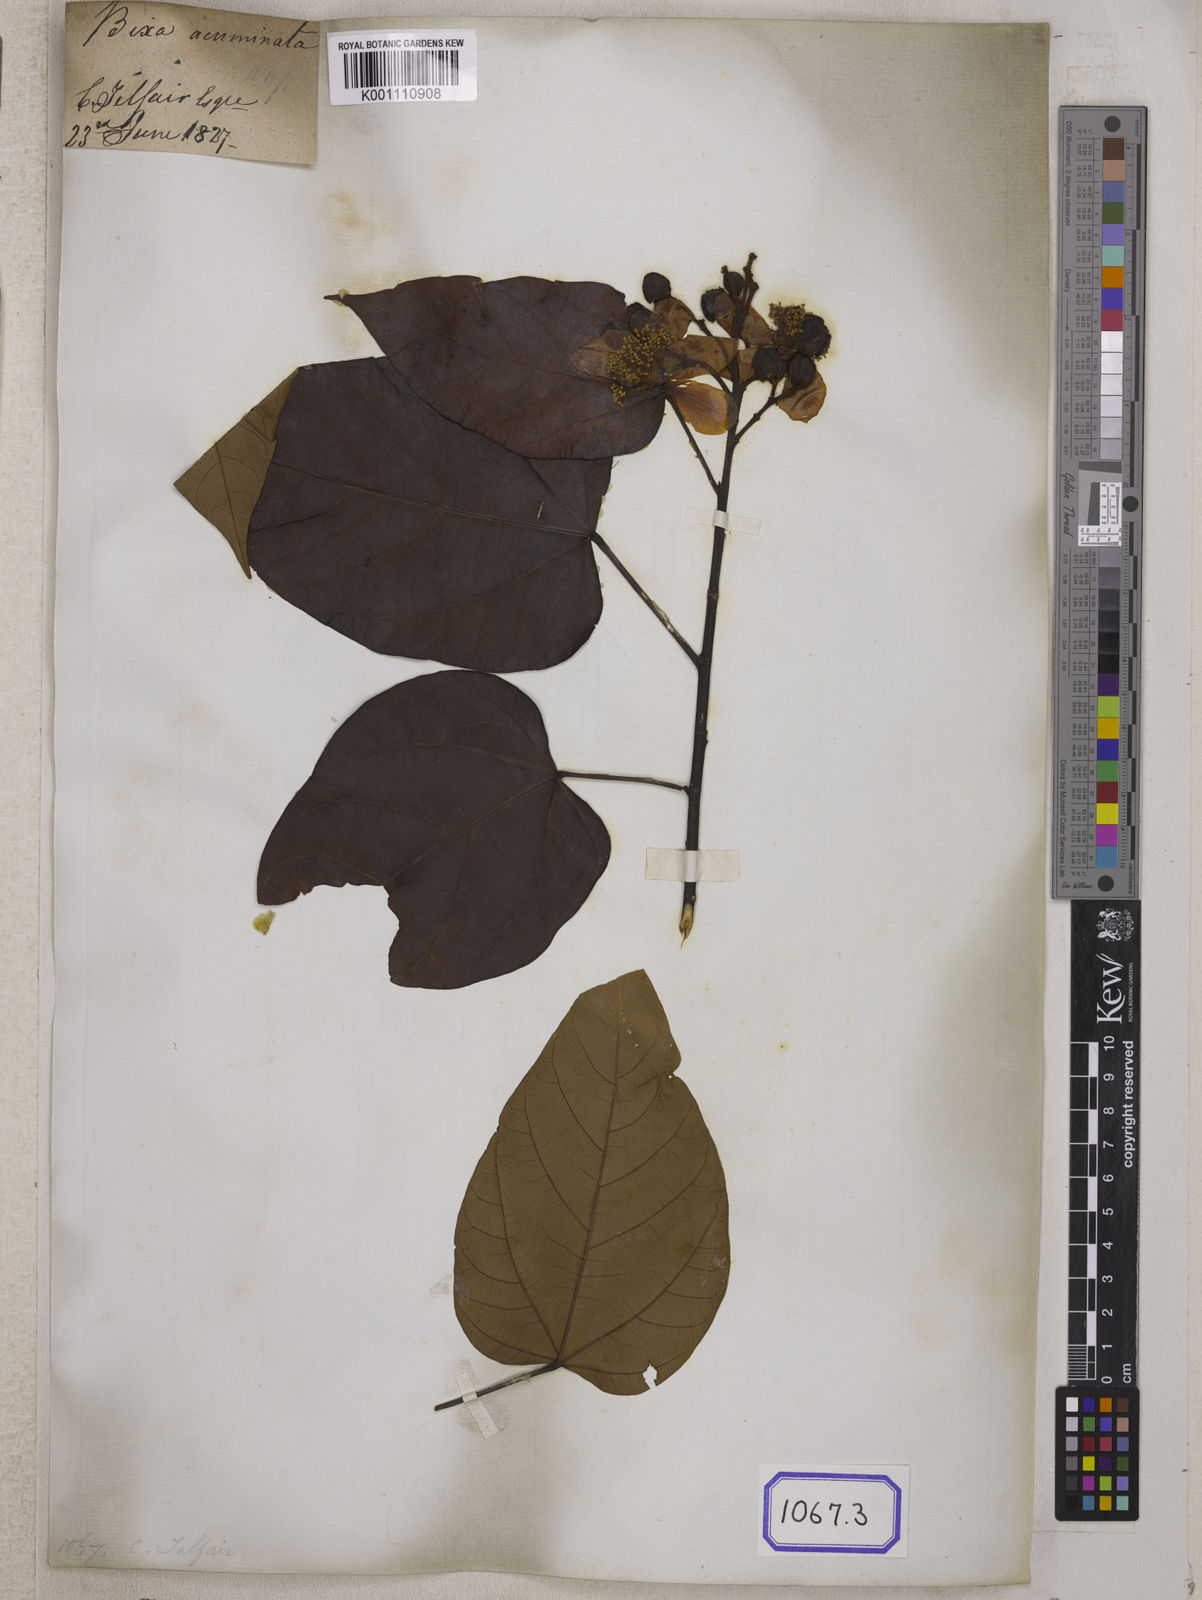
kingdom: Plantae
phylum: Tracheophyta
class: Magnoliopsida
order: Malvales
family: Bixaceae
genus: Bixa
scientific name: Bixa orellana
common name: Lipsticktree
